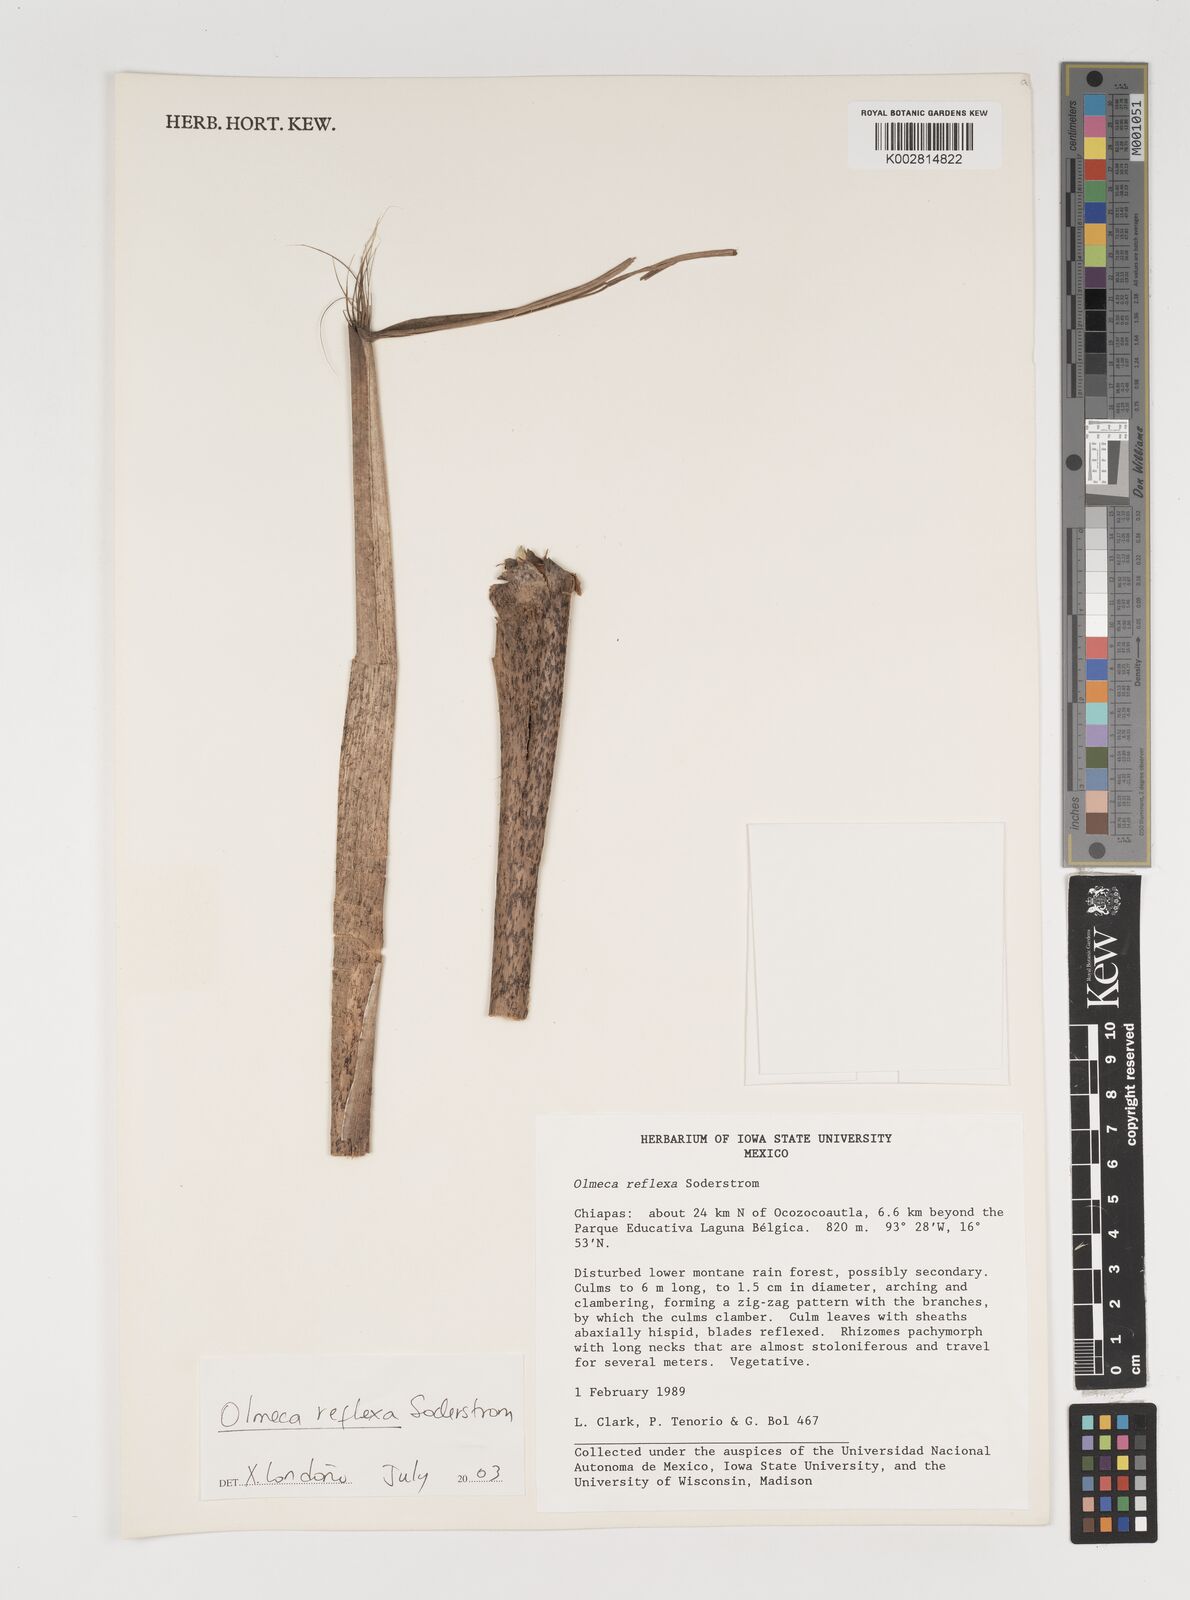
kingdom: Plantae
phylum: Tracheophyta
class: Liliopsida
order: Poales
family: Poaceae
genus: Olmeca
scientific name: Olmeca reflexa
